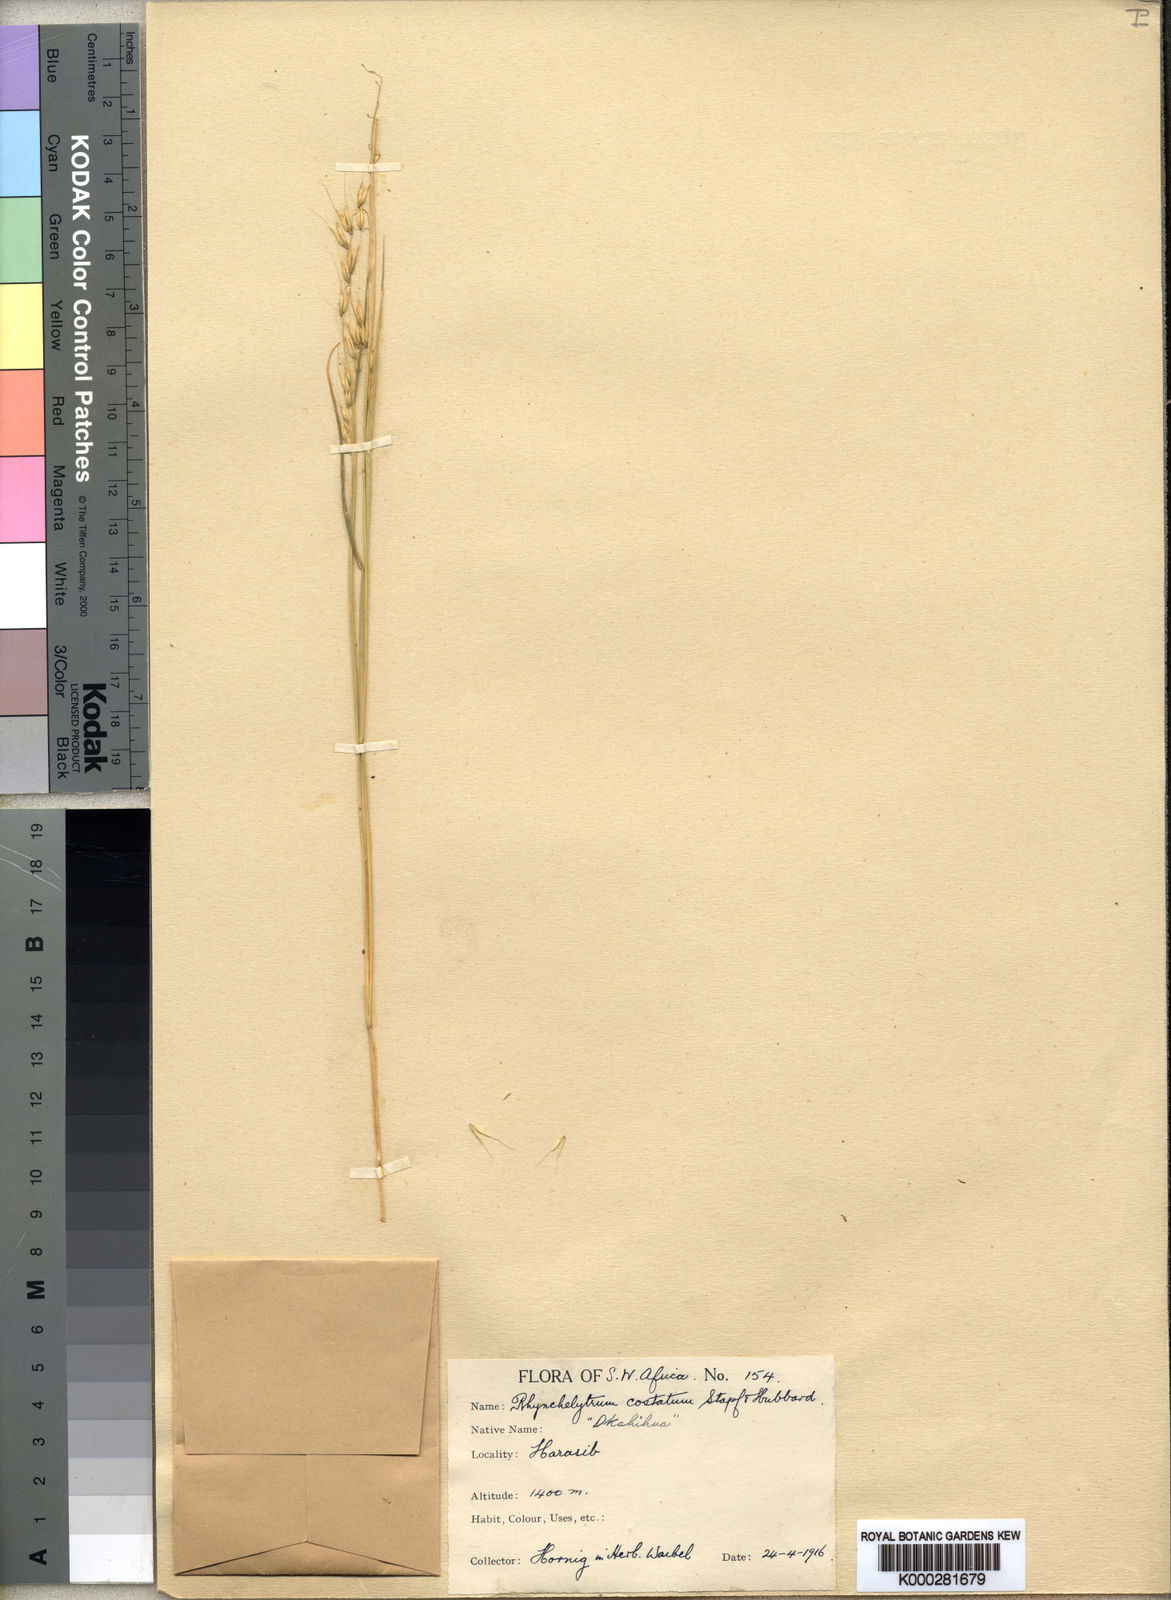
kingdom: Plantae
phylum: Tracheophyta
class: Liliopsida
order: Poales
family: Poaceae
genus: Melinis
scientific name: Melinis repens
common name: Rose natal grass
